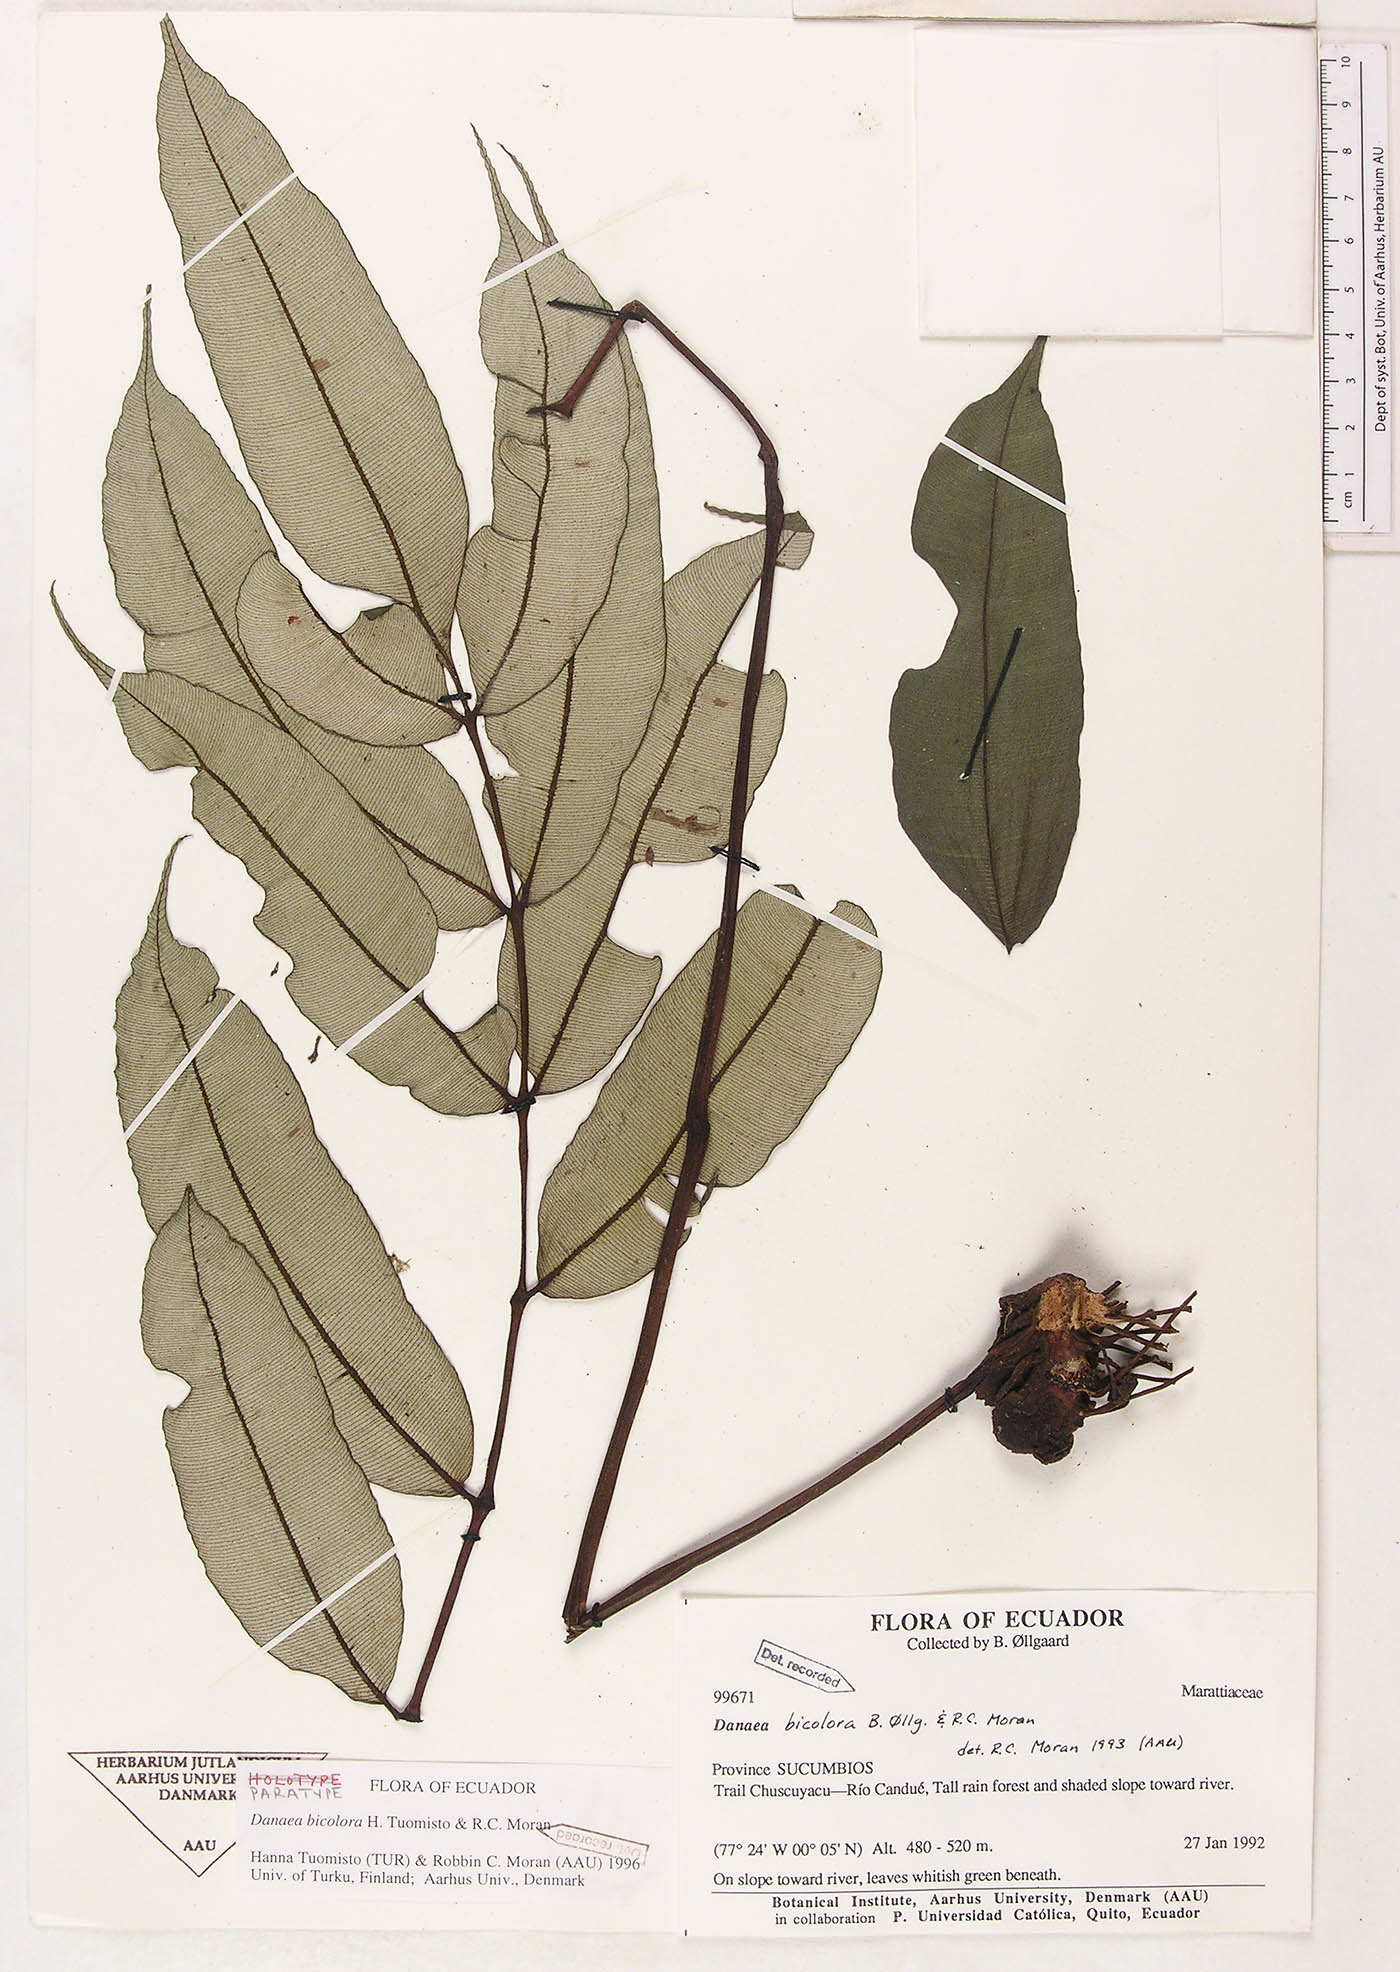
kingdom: Plantae
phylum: Tracheophyta
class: Polypodiopsida
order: Marattiales
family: Marattiaceae
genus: Danaea
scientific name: Danaea bicolor
